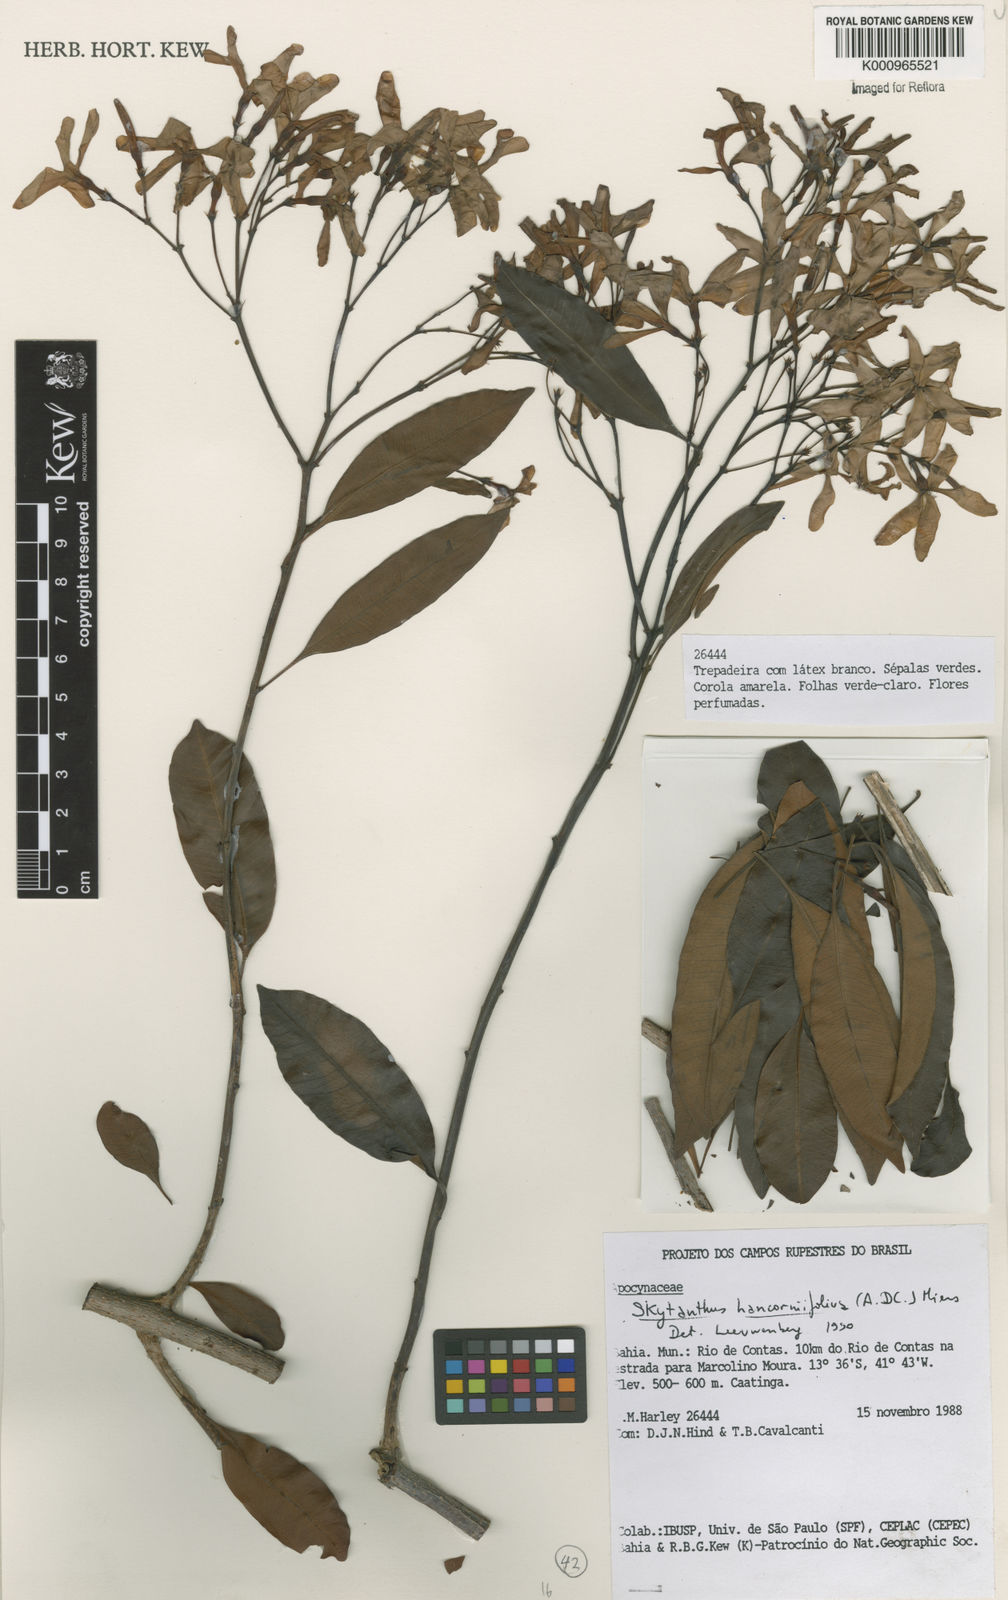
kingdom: Plantae
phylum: Tracheophyta
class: Magnoliopsida
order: Gentianales
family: Apocynaceae
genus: Skytanthus
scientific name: Skytanthus hancorniifolius
